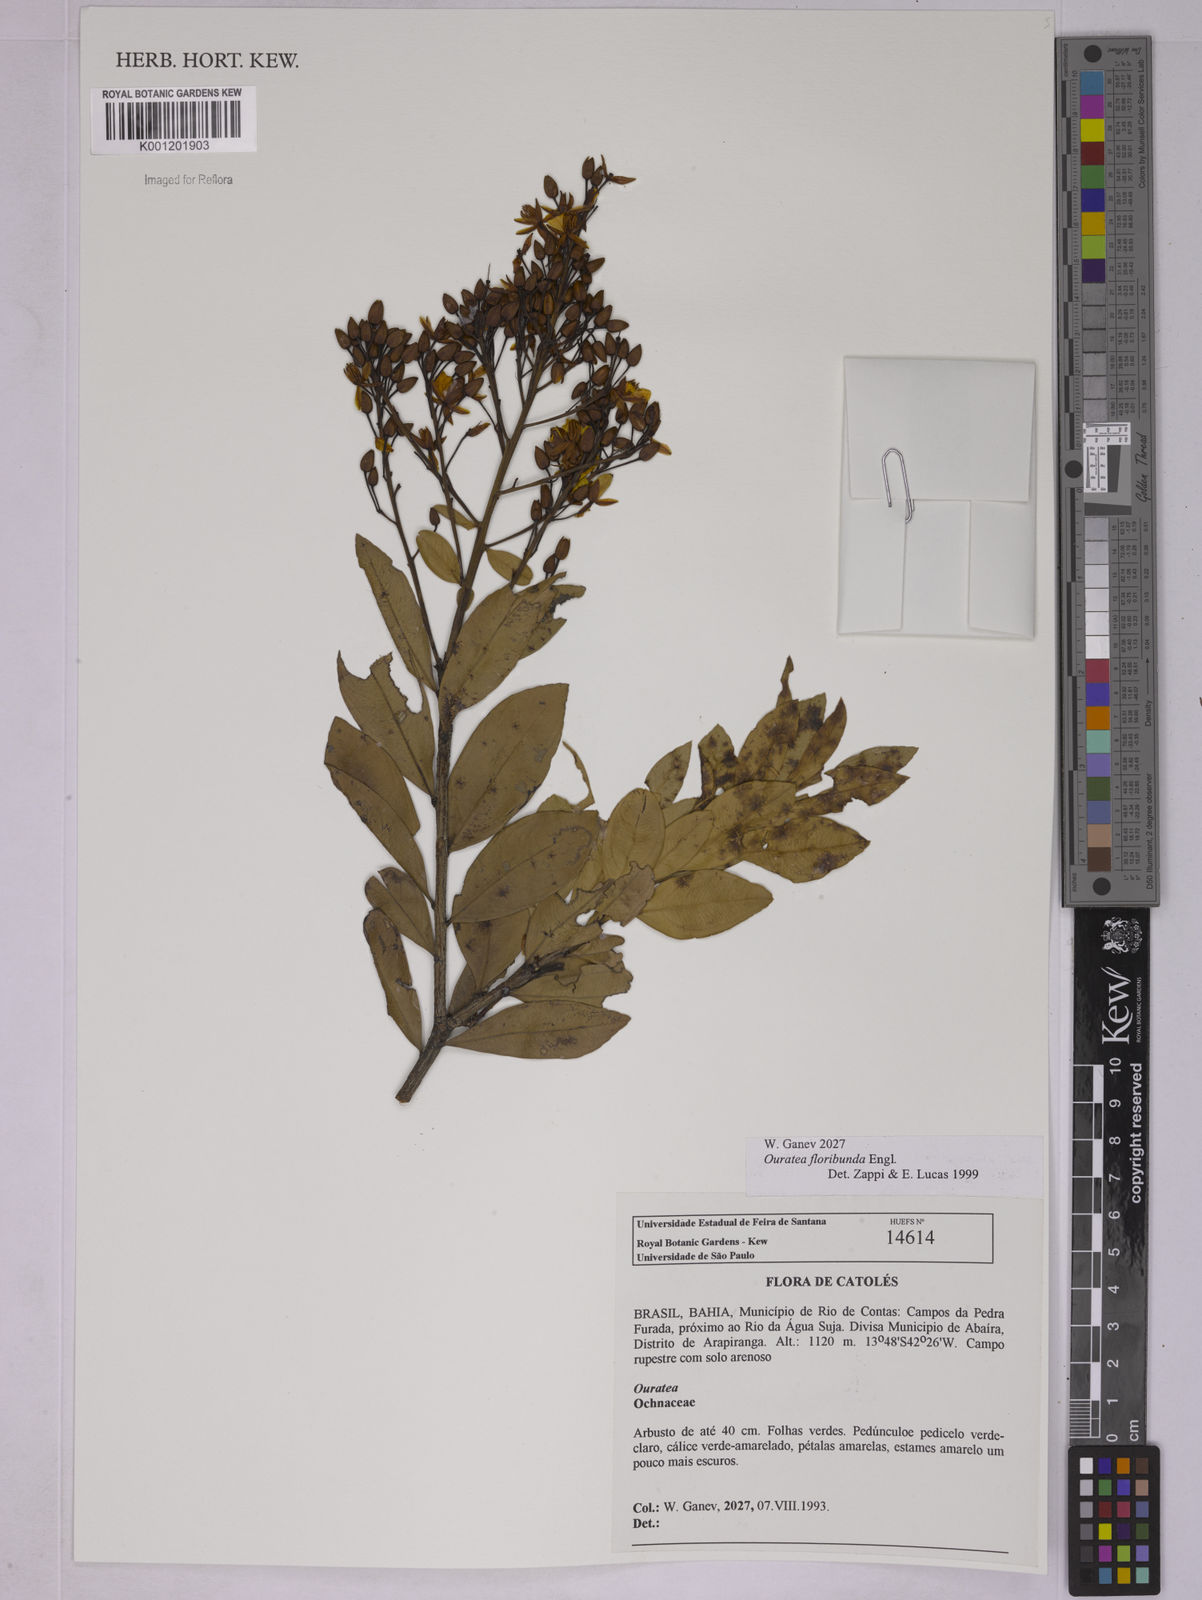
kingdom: Plantae
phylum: Tracheophyta
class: Magnoliopsida
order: Malpighiales
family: Ochnaceae
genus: Ouratea
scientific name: Ouratea floribunda
